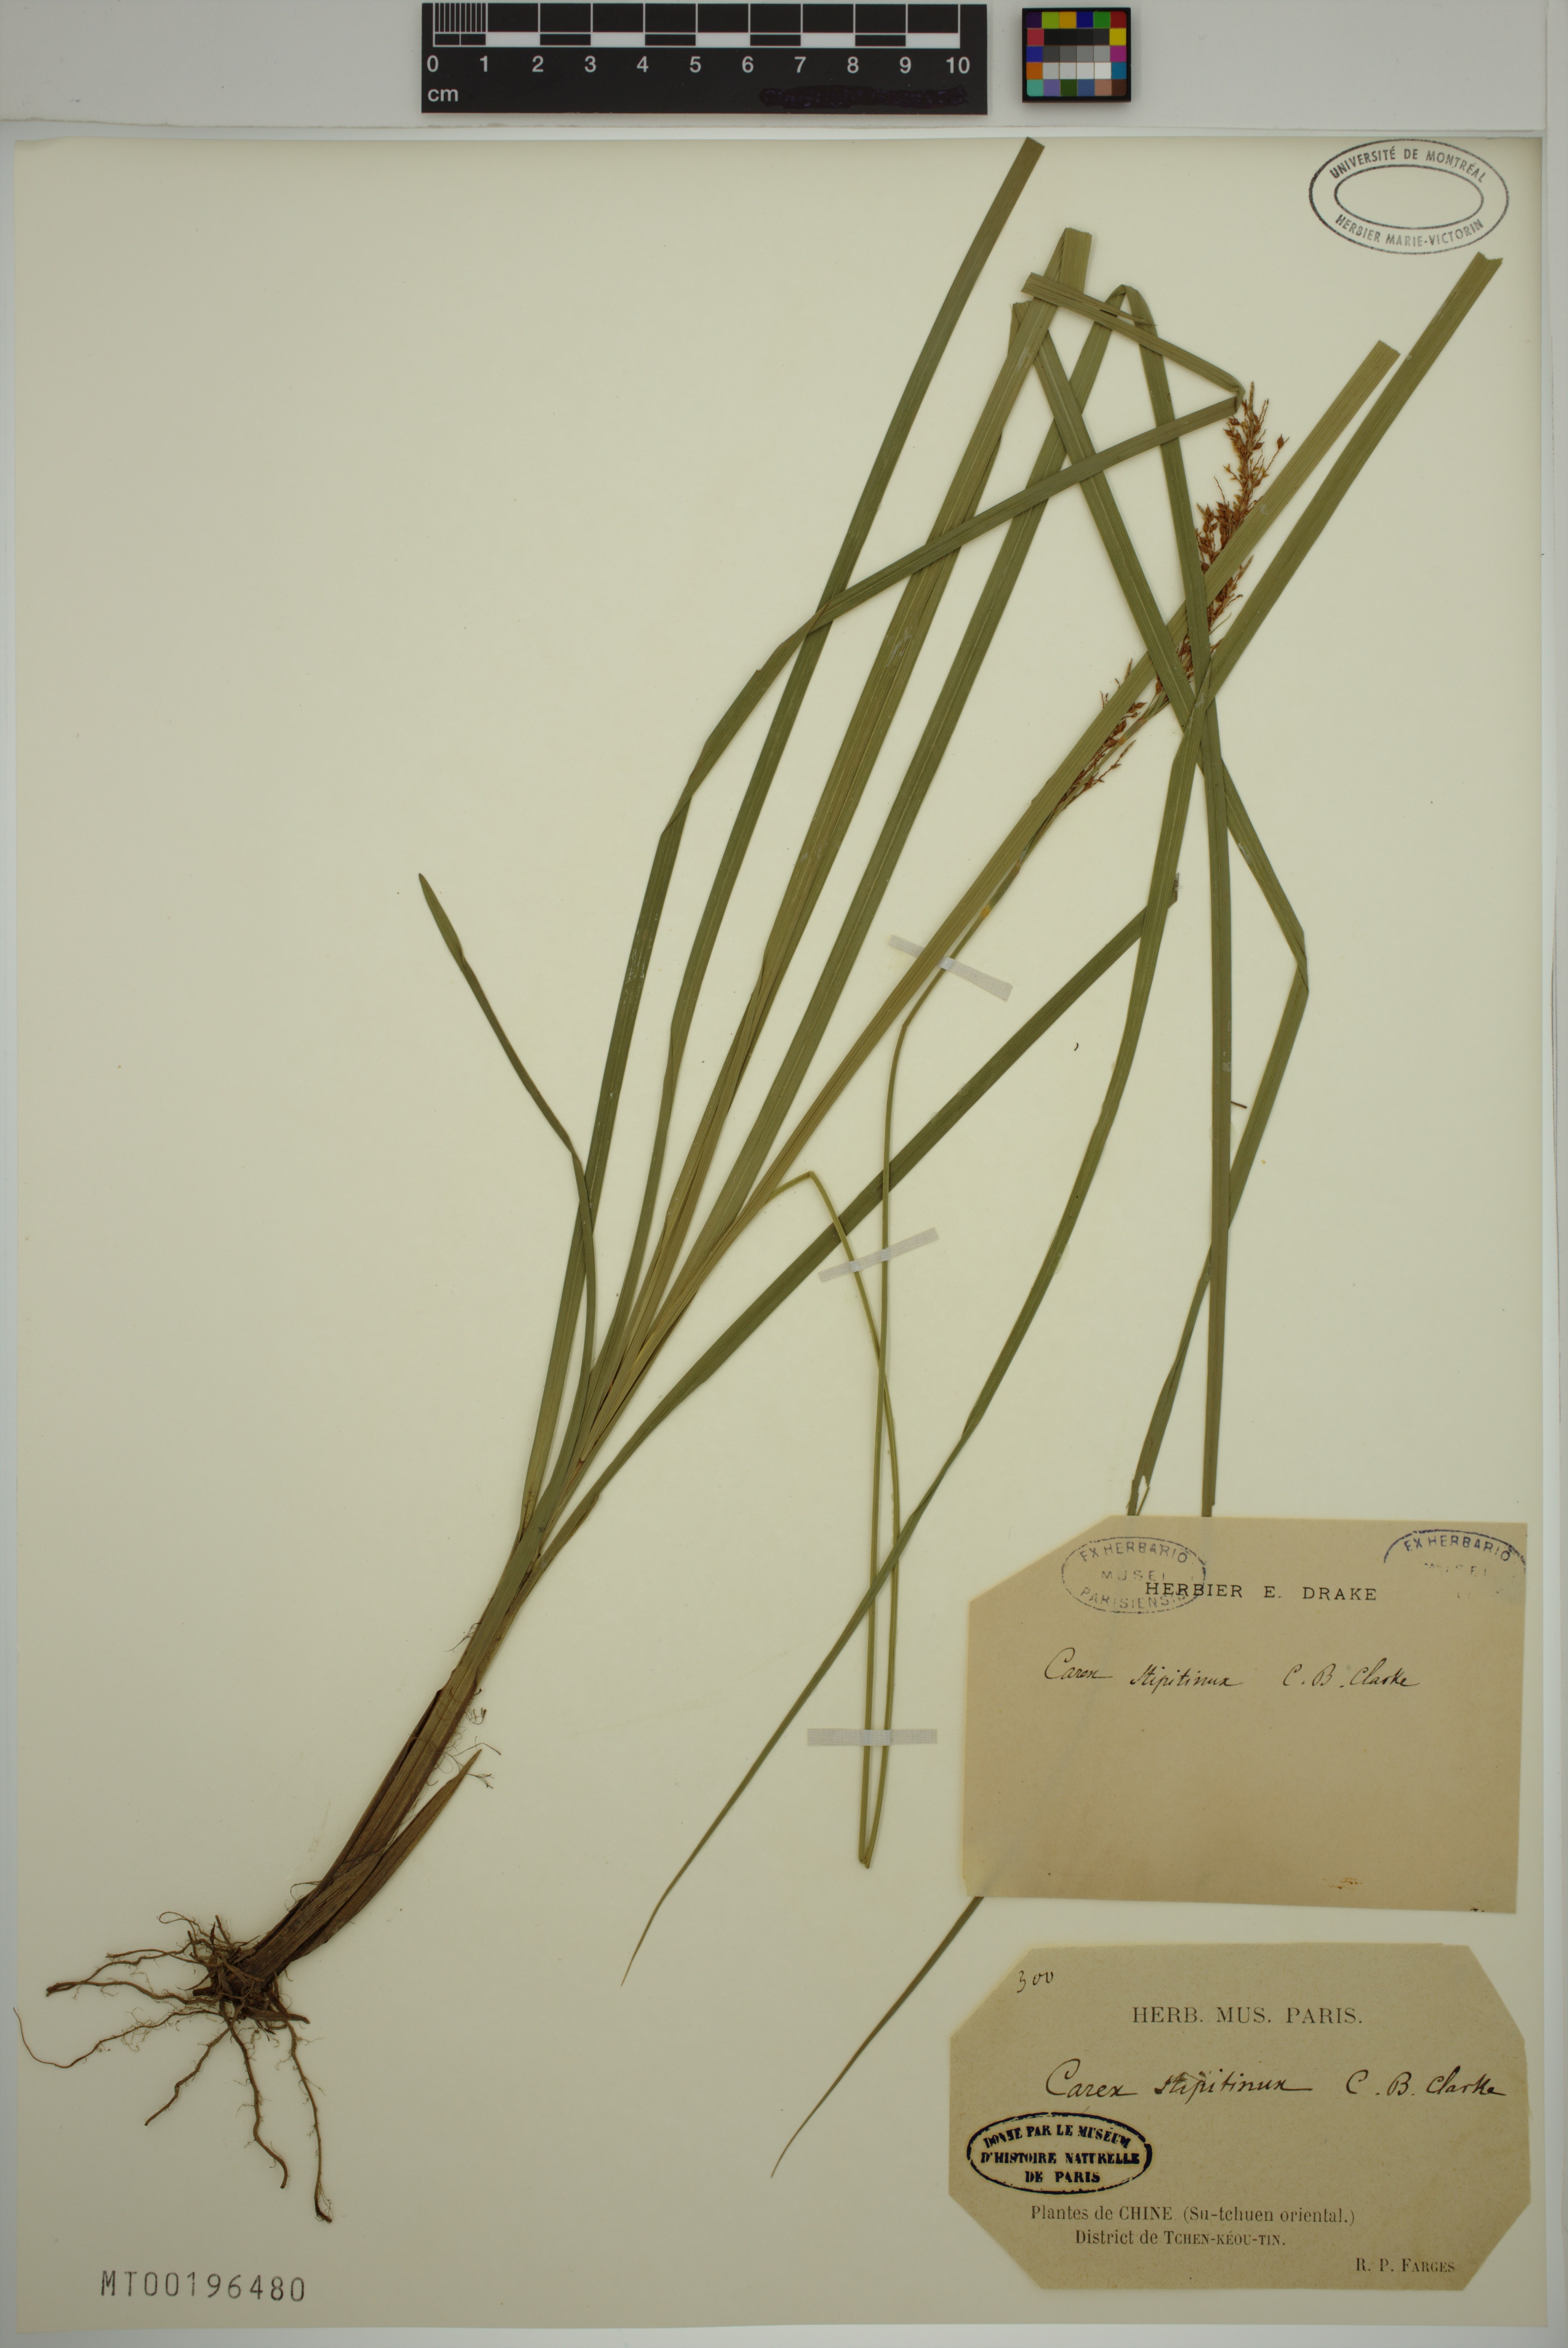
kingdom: Plantae
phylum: Tracheophyta
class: Liliopsida
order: Poales
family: Cyperaceae
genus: Carex
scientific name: Carex stipitinux
